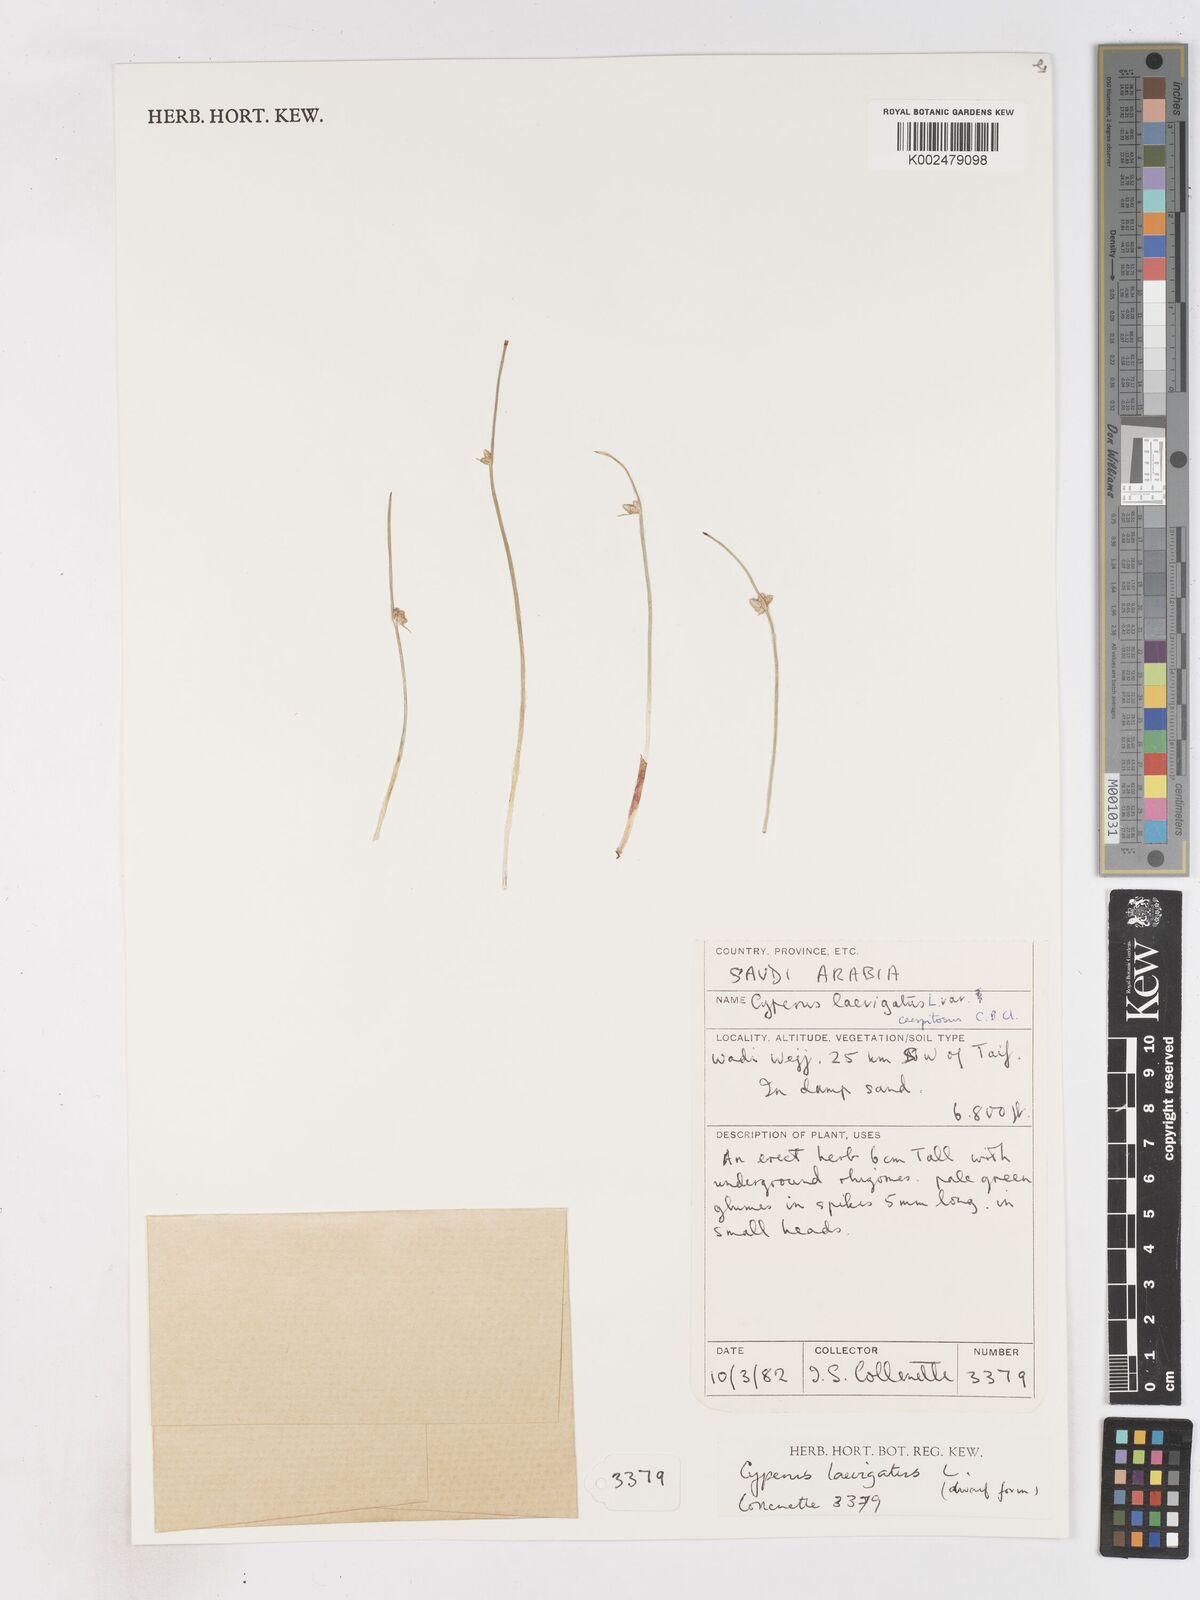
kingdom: Plantae
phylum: Tracheophyta
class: Liliopsida
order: Poales
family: Cyperaceae
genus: Cyperus
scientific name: Cyperus laevigatus
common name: Smooth flat sedge
